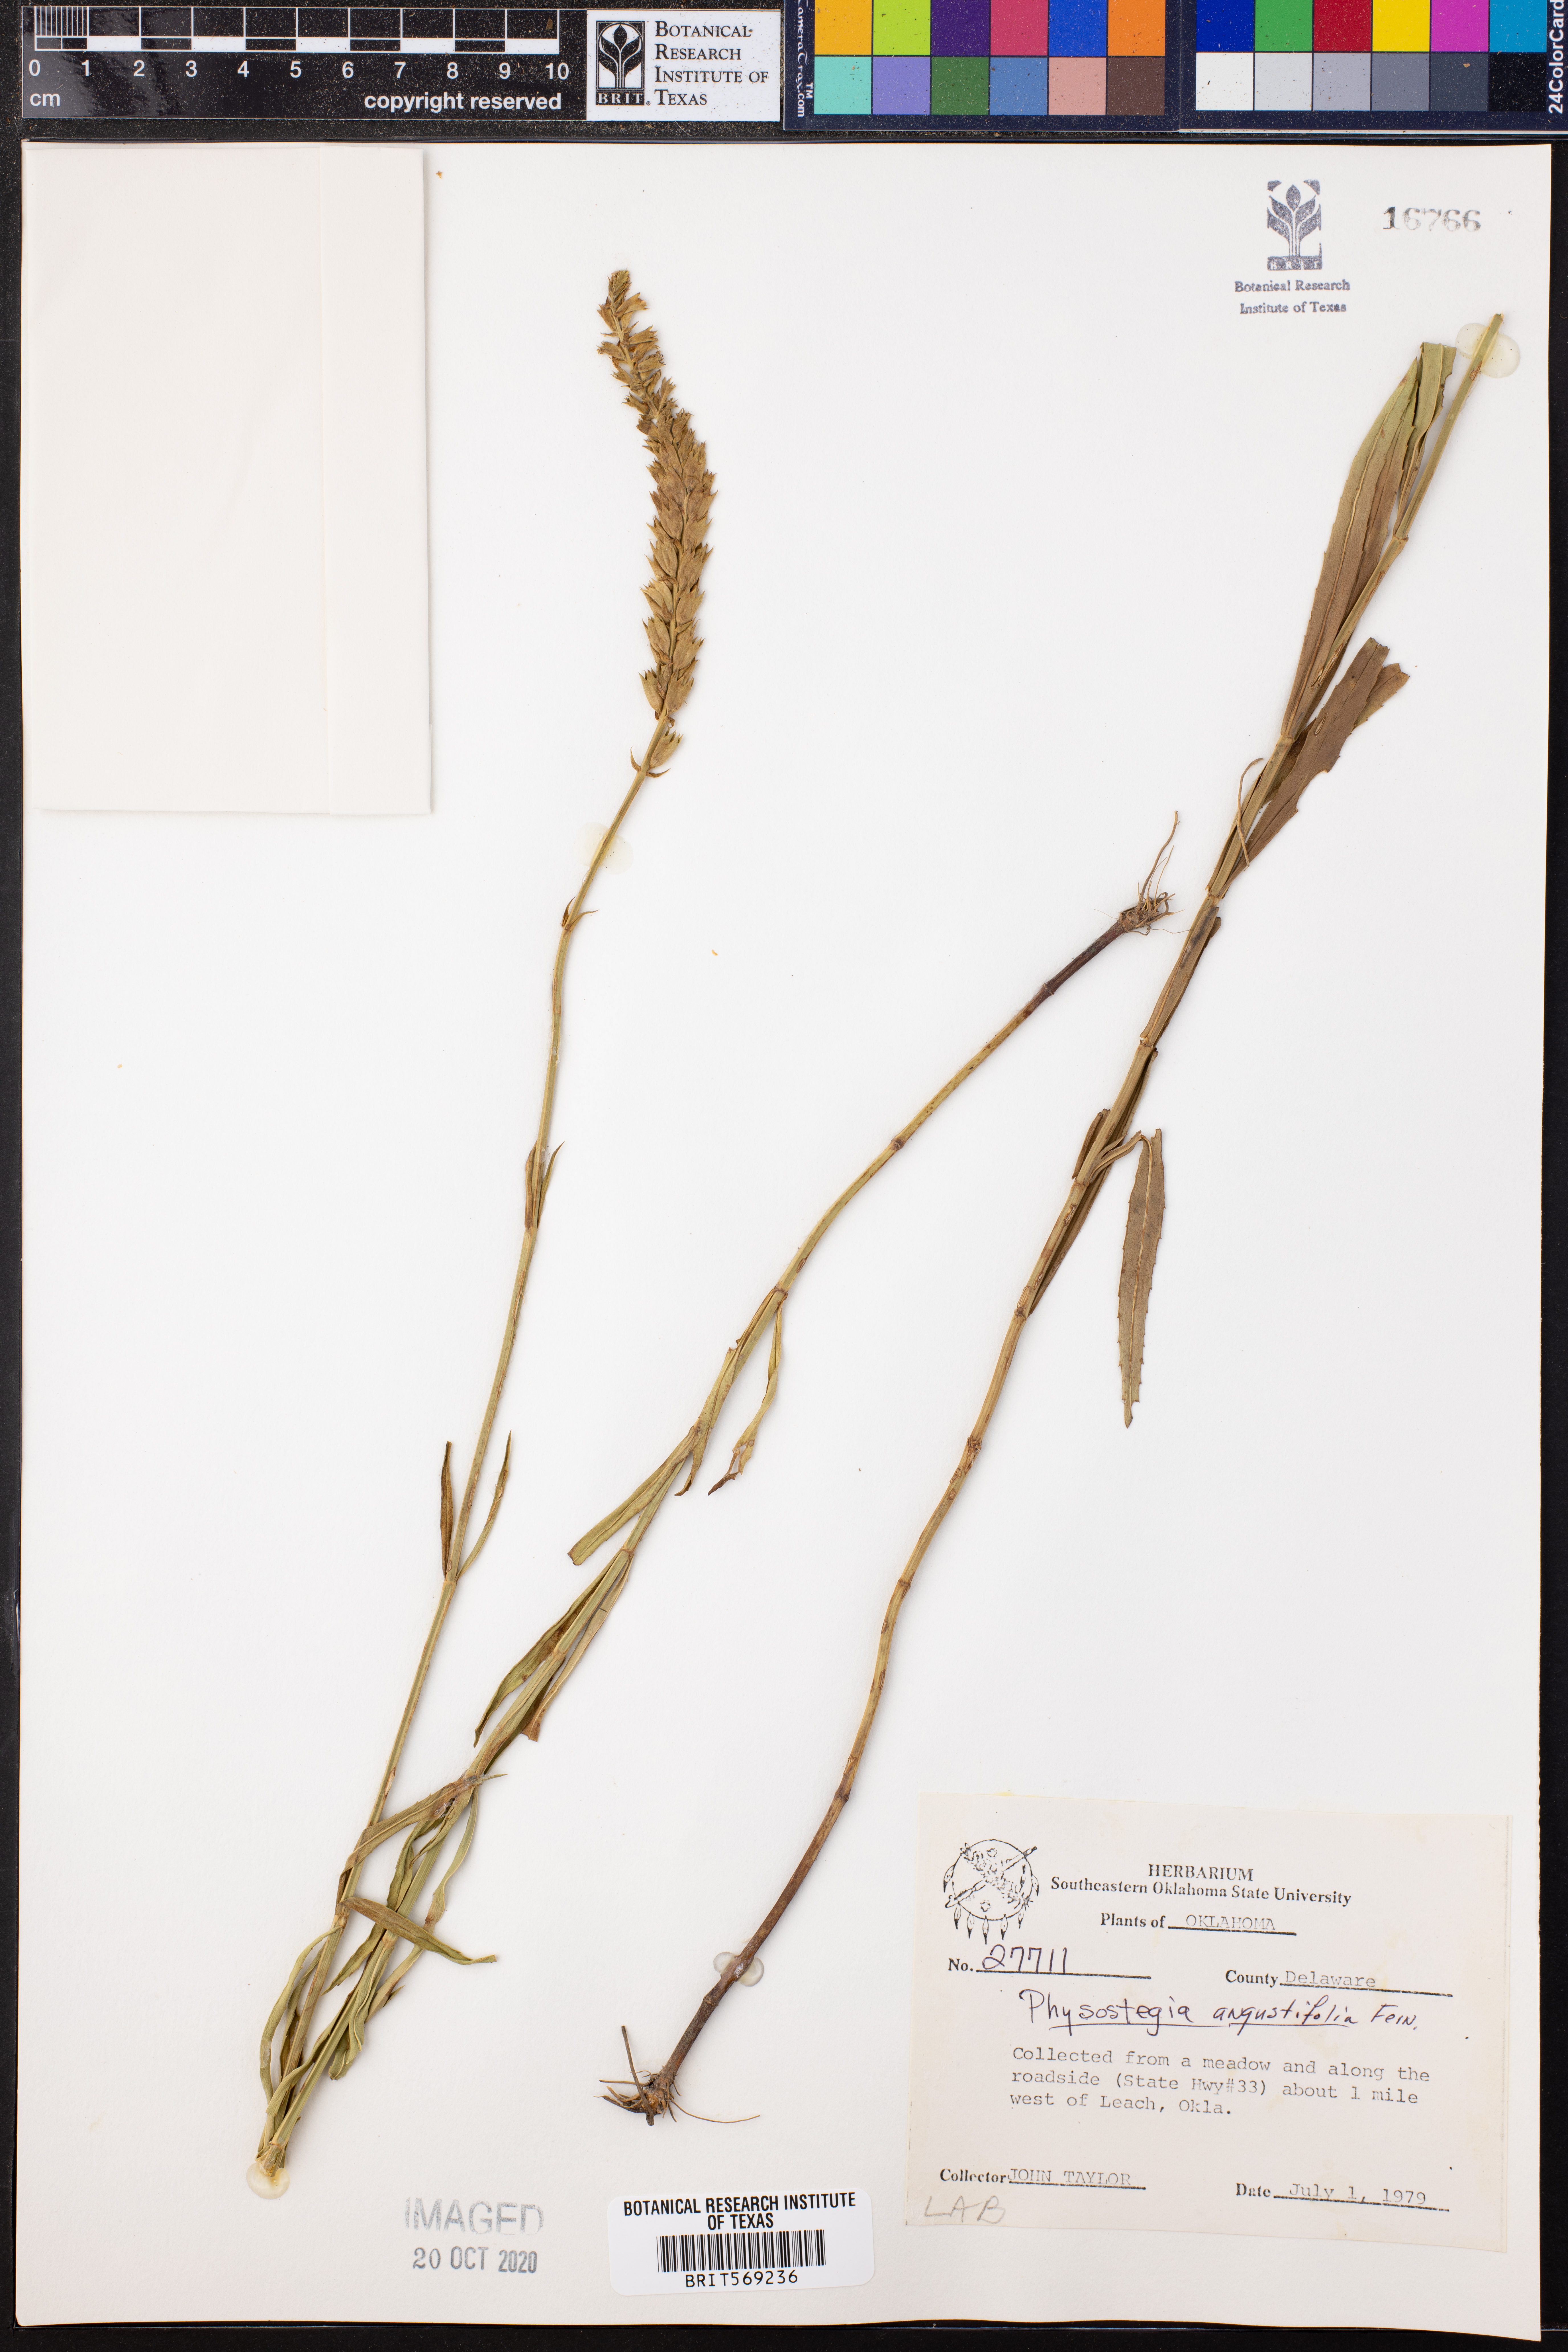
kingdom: Plantae
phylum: Tracheophyta
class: Magnoliopsida
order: Lamiales
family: Lamiaceae
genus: Physostegia
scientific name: Physostegia angustifolia
